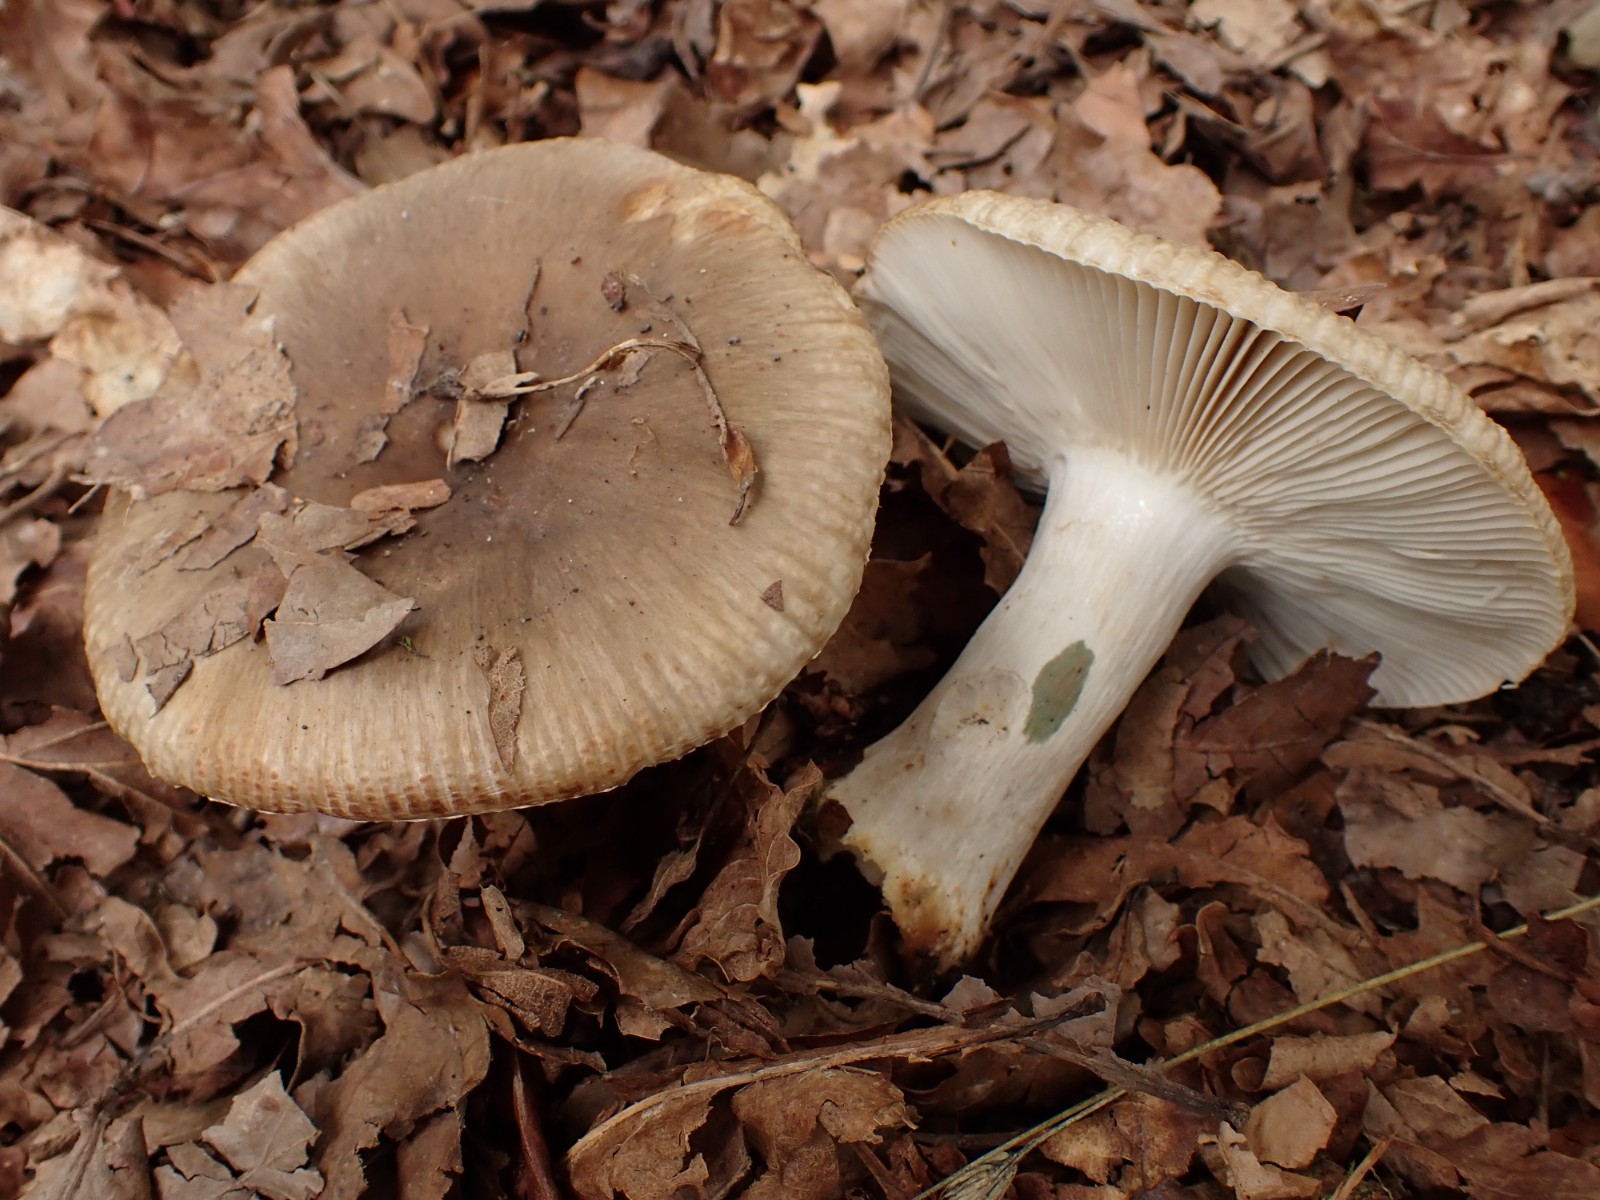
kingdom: Fungi
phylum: Basidiomycota
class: Agaricomycetes
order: Russulales
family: Russulaceae
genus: Russula
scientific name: Russula sororia
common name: brun kam-skørhat
